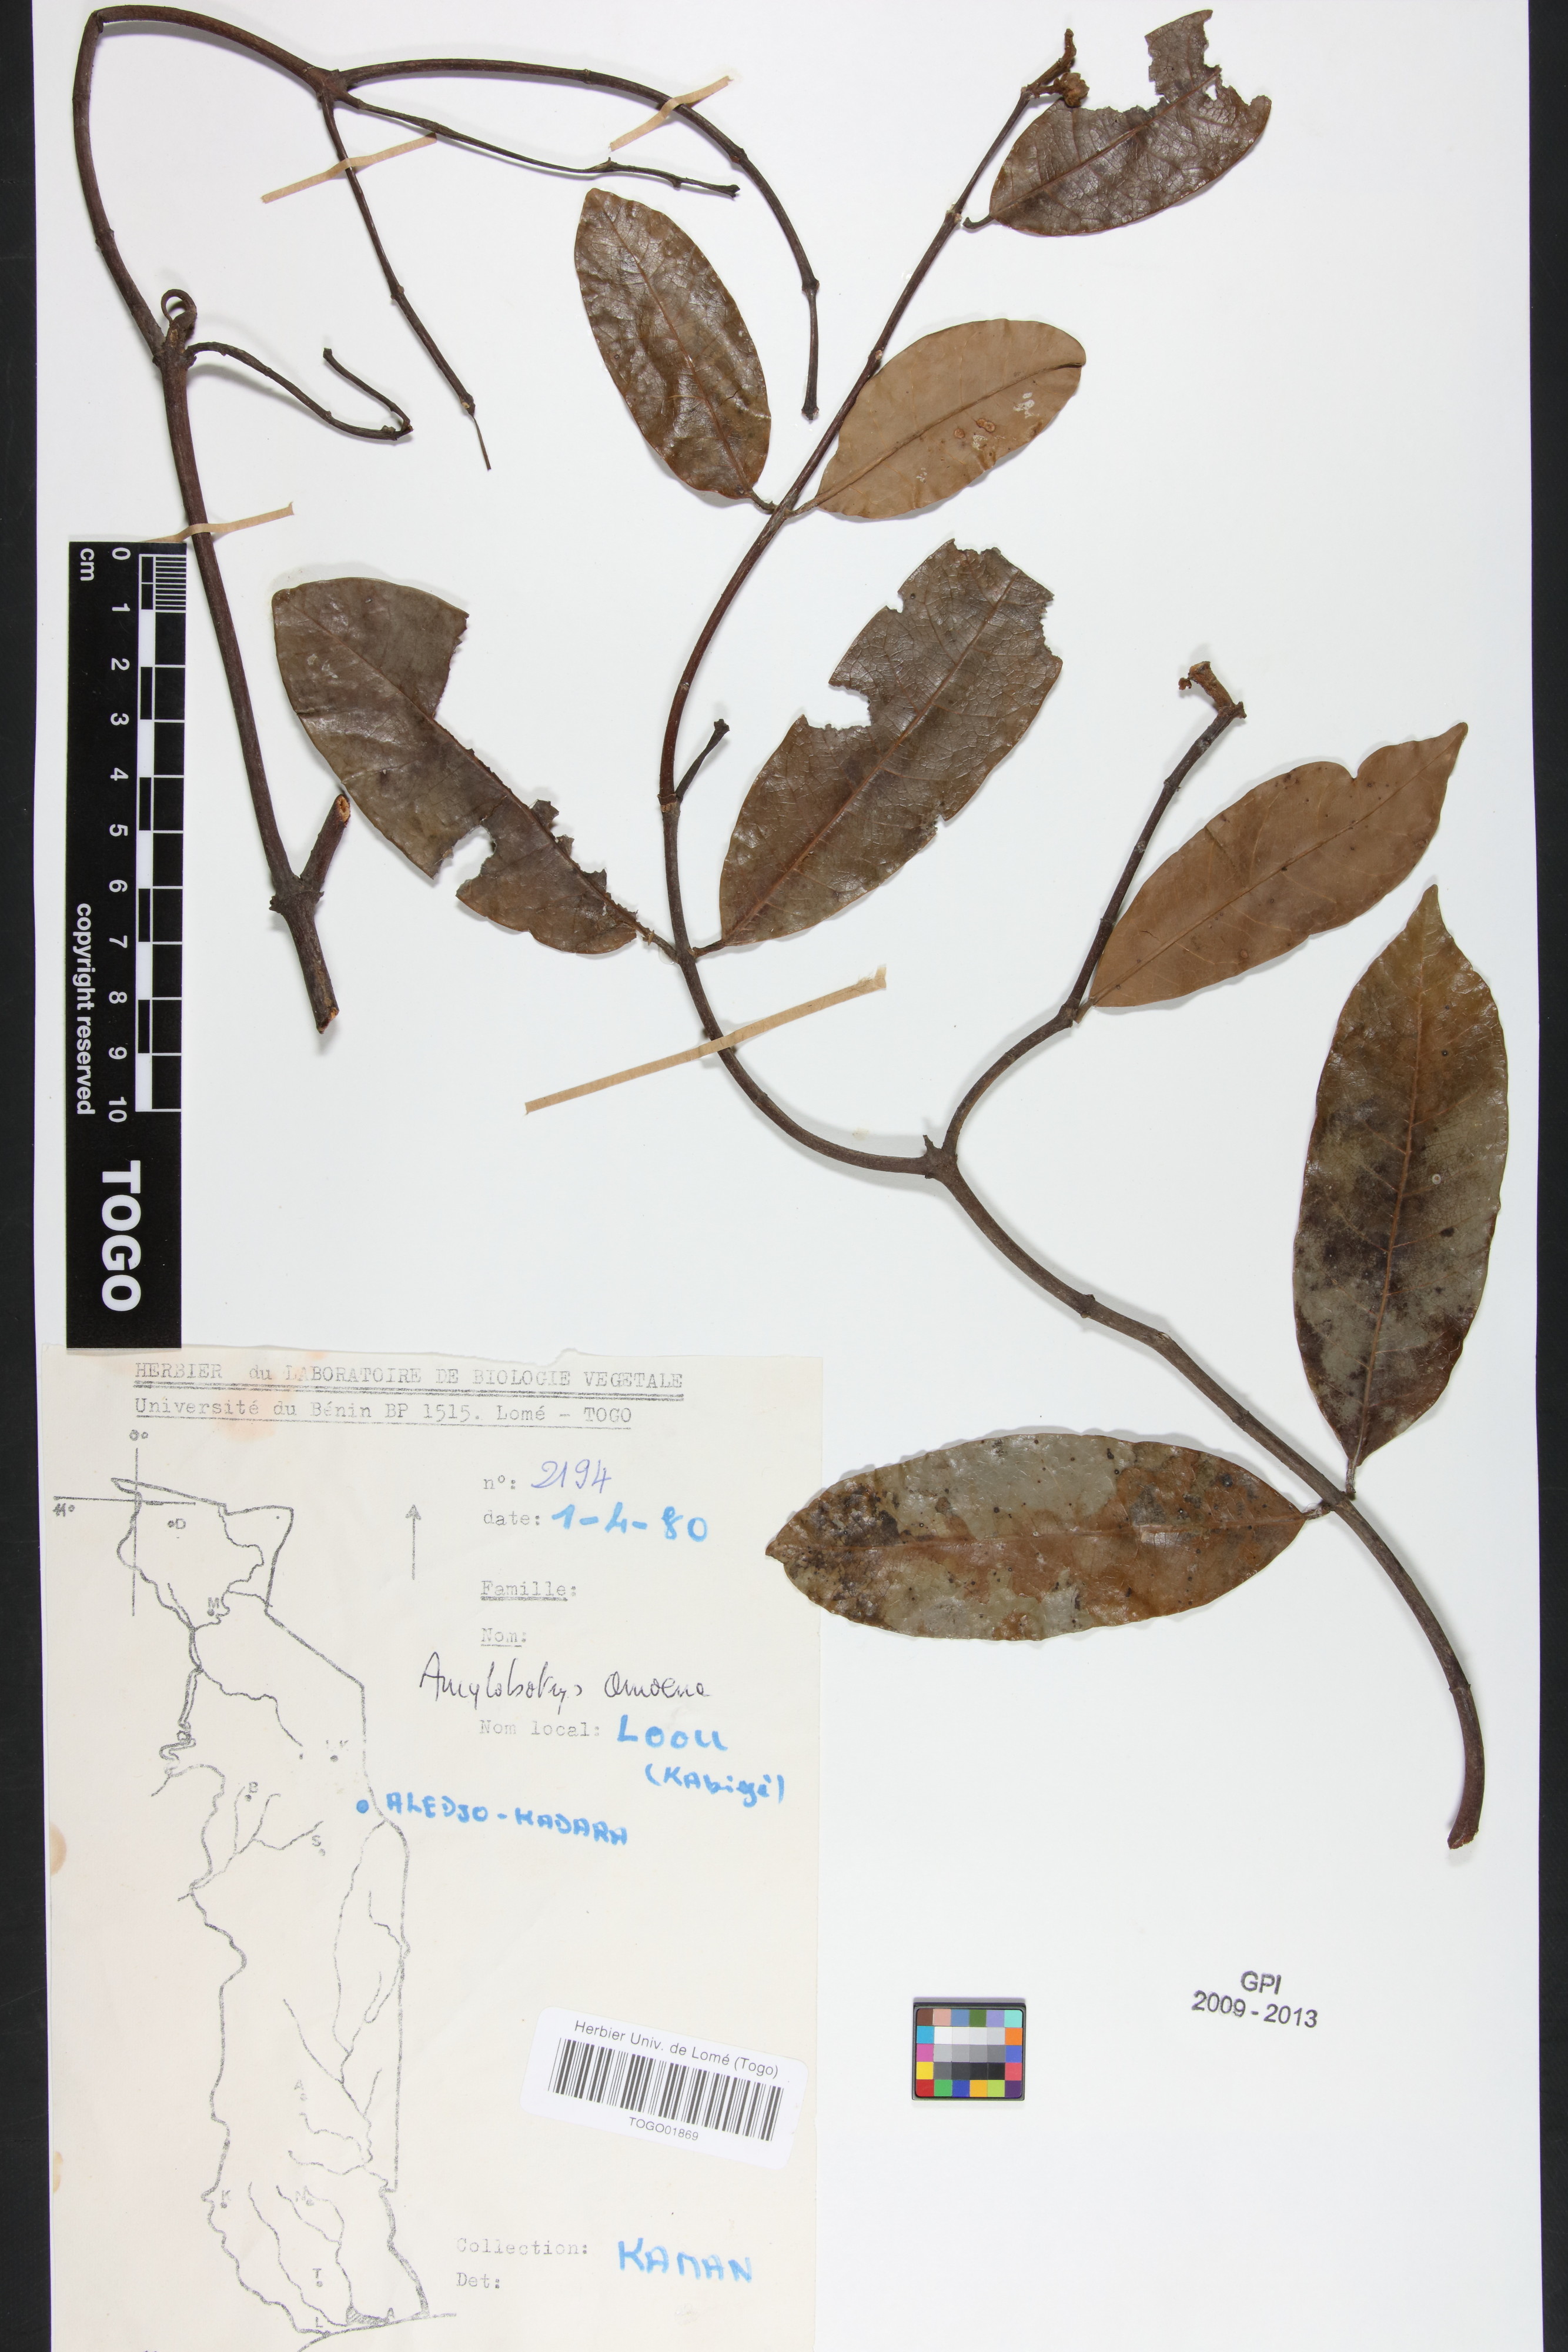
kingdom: Plantae
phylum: Tracheophyta
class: Magnoliopsida
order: Gentianales
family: Apocynaceae
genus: Ancylobothrys
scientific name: Ancylobothrys amoena
